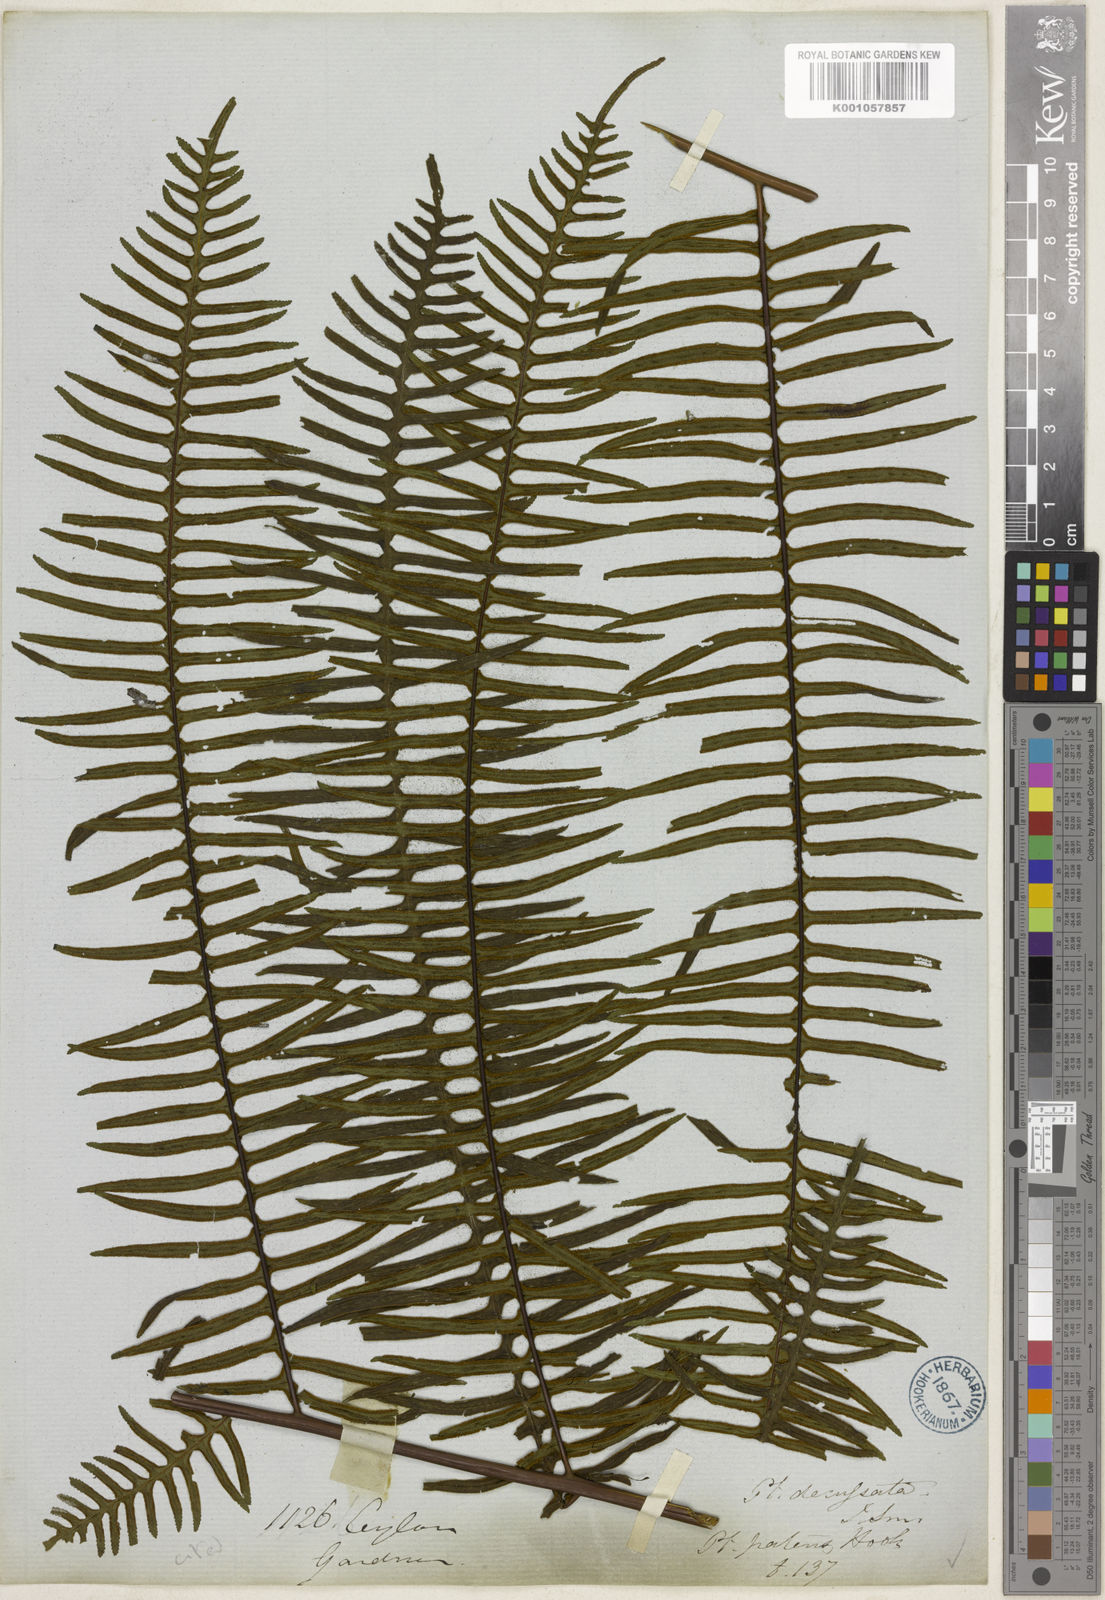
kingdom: Plantae
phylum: Tracheophyta
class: Polypodiopsida
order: Polypodiales
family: Pteridaceae
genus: Pteris
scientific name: Pteris mertensioides
